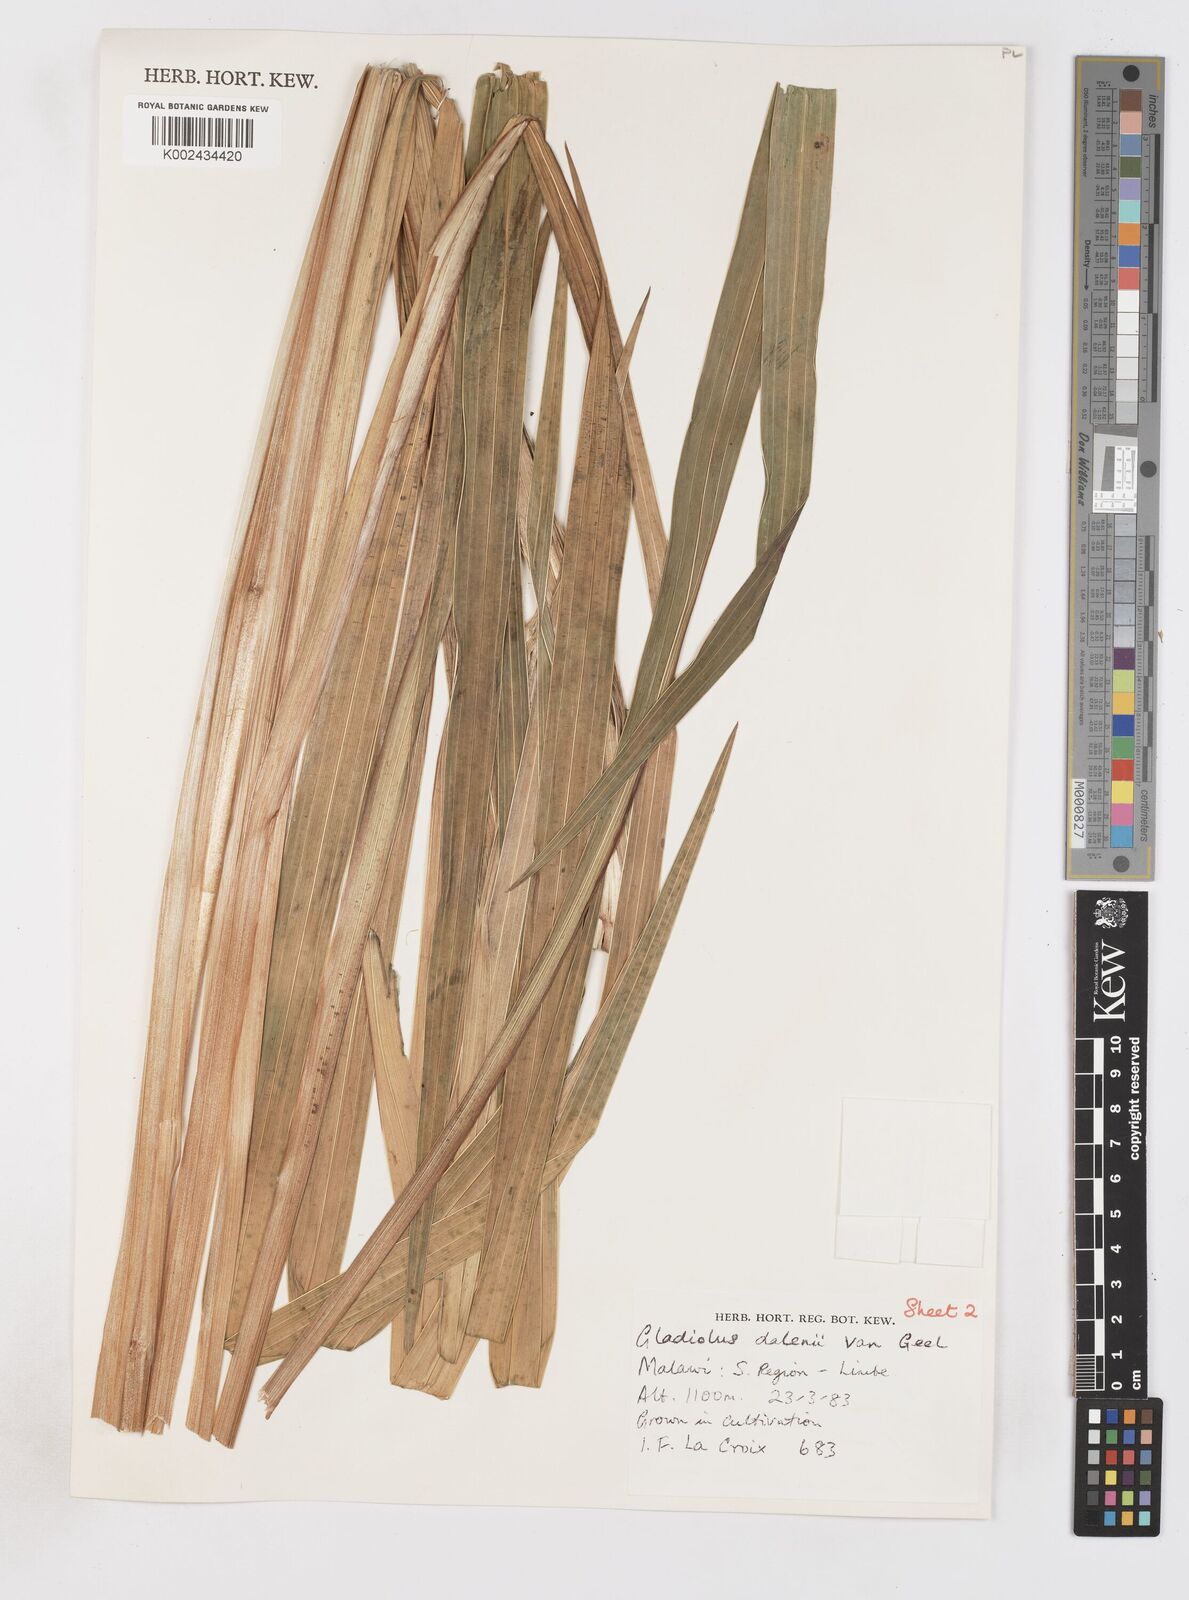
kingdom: Plantae
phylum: Tracheophyta
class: Liliopsida
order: Asparagales
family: Iridaceae
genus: Gladiolus
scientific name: Gladiolus dalenii
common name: Cornflag
